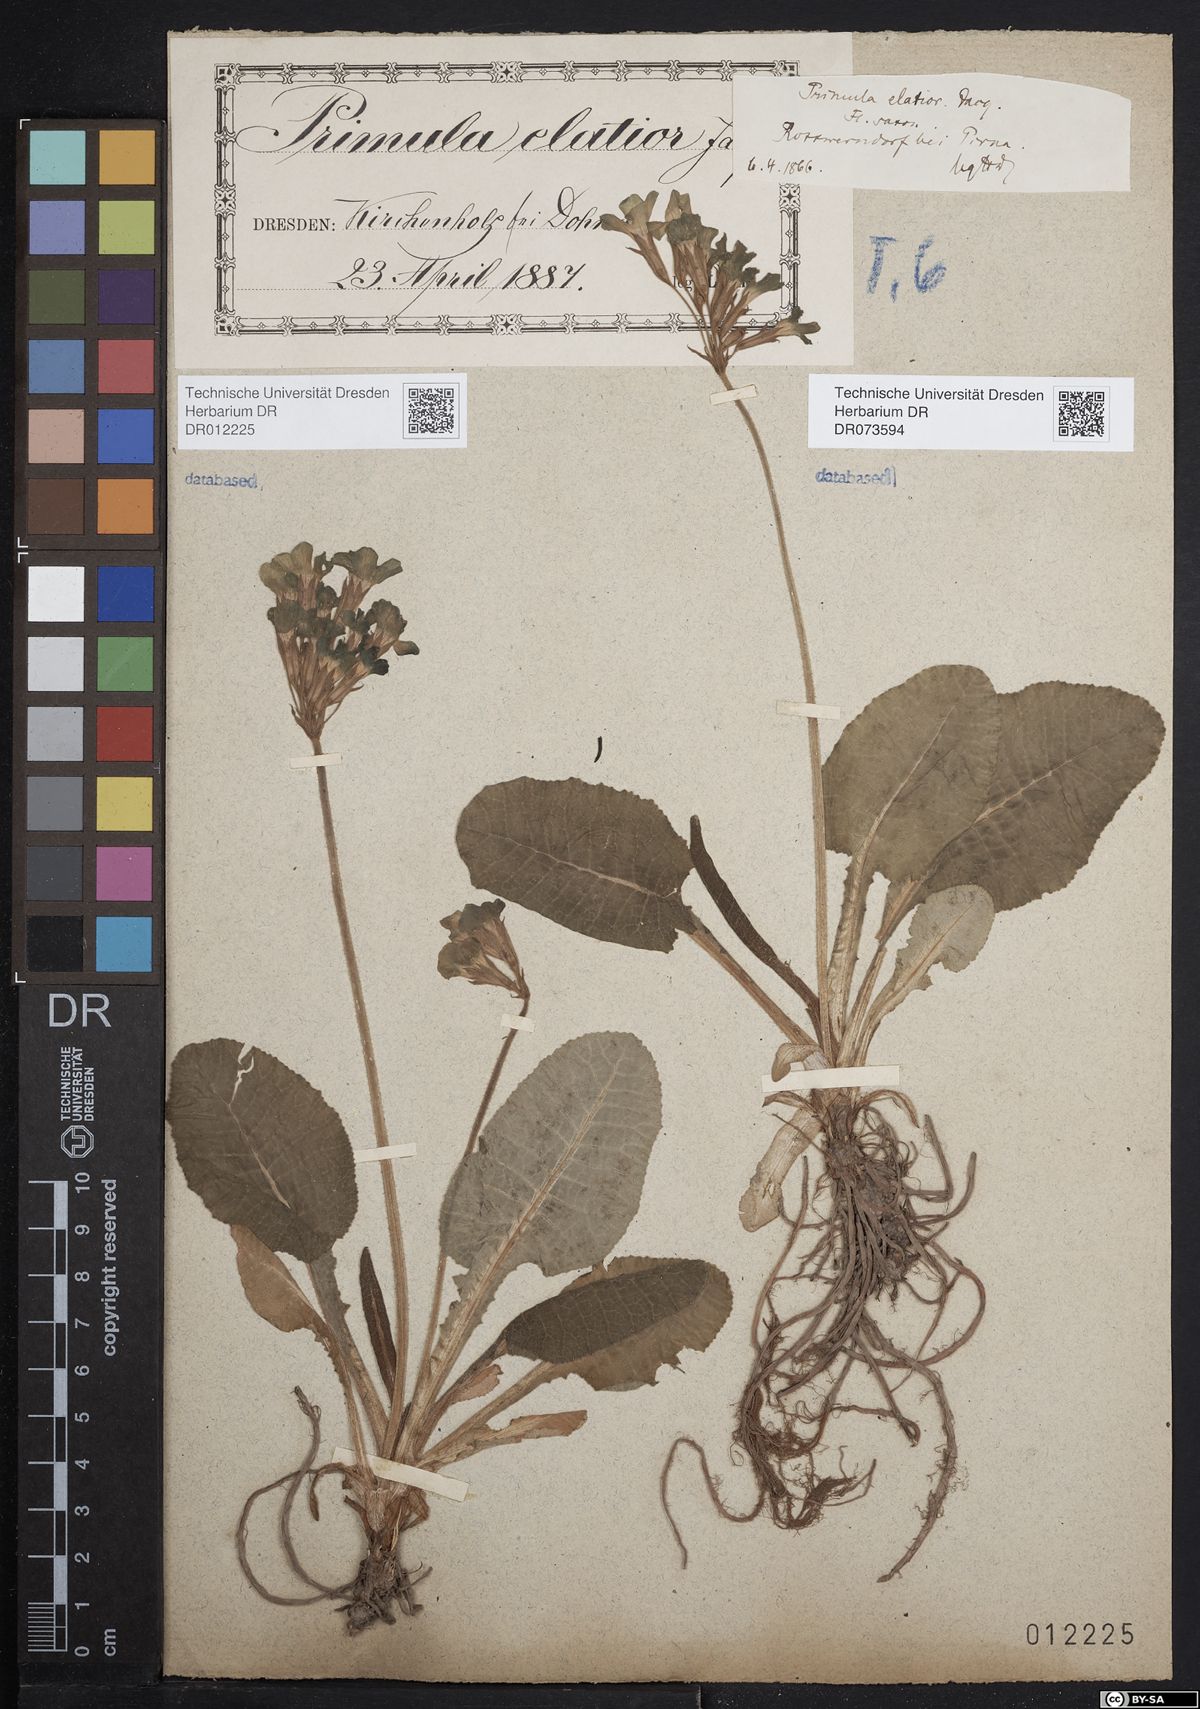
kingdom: Plantae
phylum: Tracheophyta
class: Magnoliopsida
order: Ericales
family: Primulaceae
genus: Primula
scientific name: Primula elatior
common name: Oxlip
